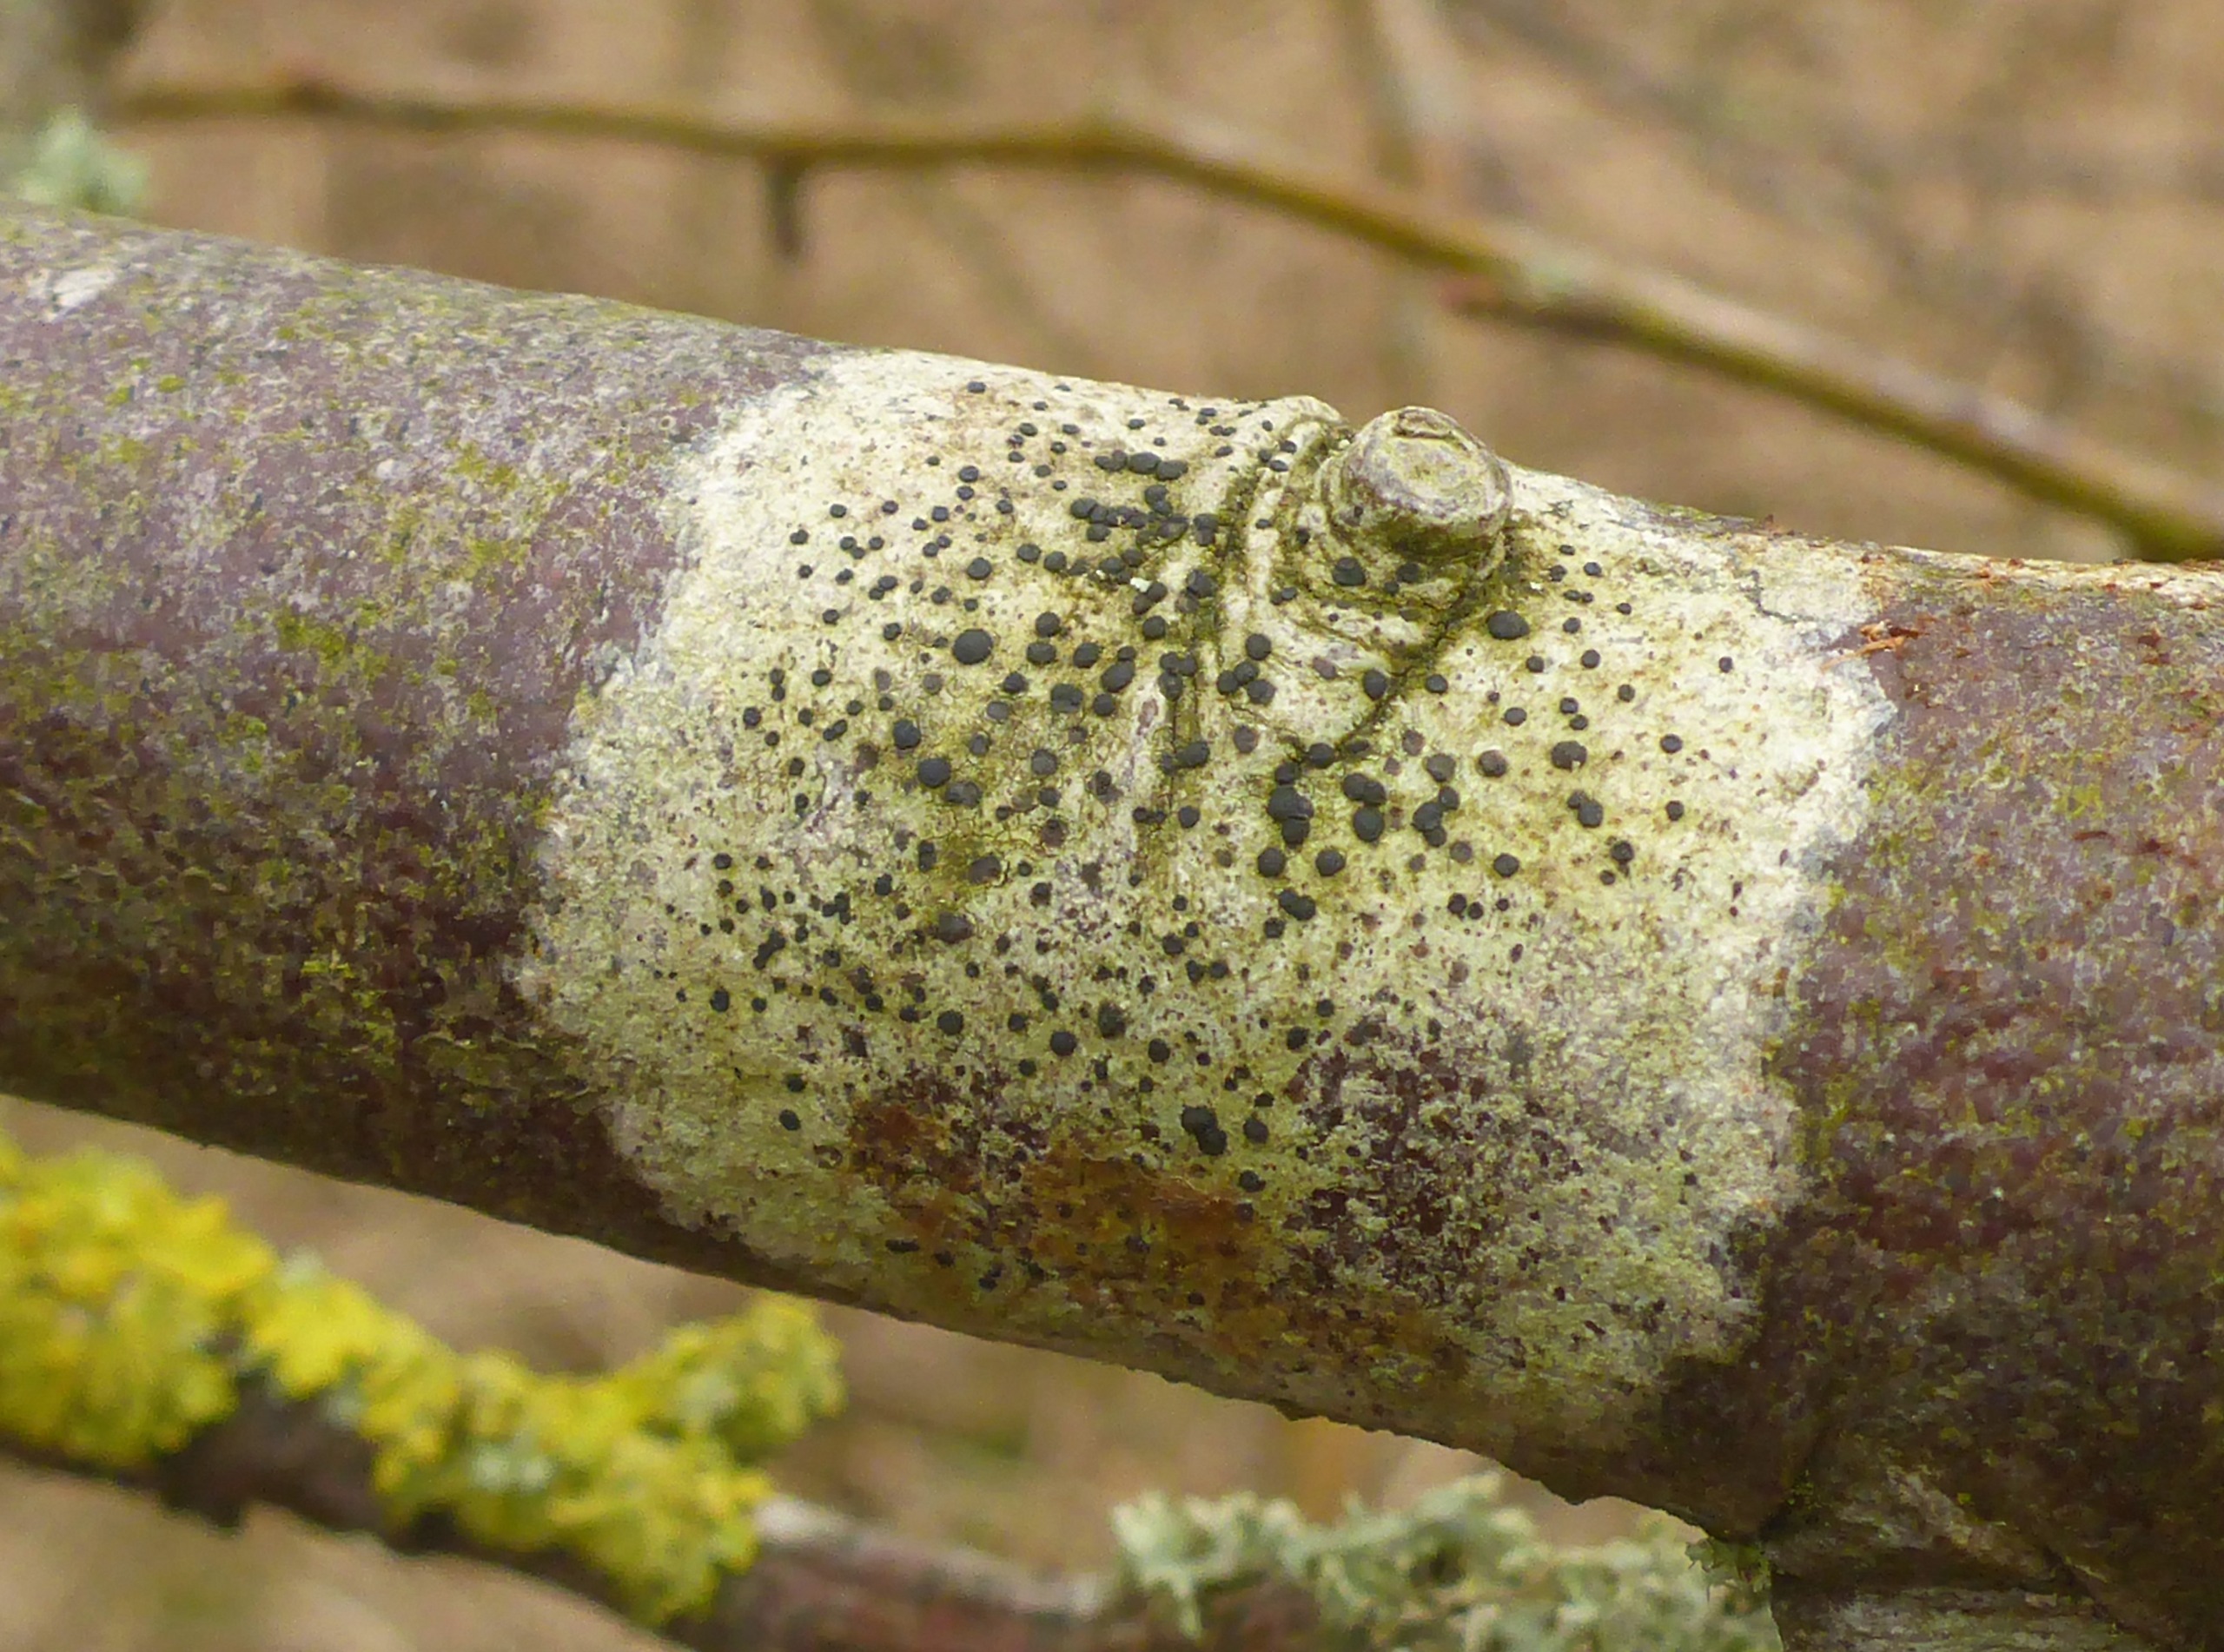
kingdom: Fungi
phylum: Ascomycota
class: Lecanoromycetes
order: Lecanorales
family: Lecanoraceae
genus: Lecidella
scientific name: Lecidella elaeochroma
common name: Grågrøn skivelav
